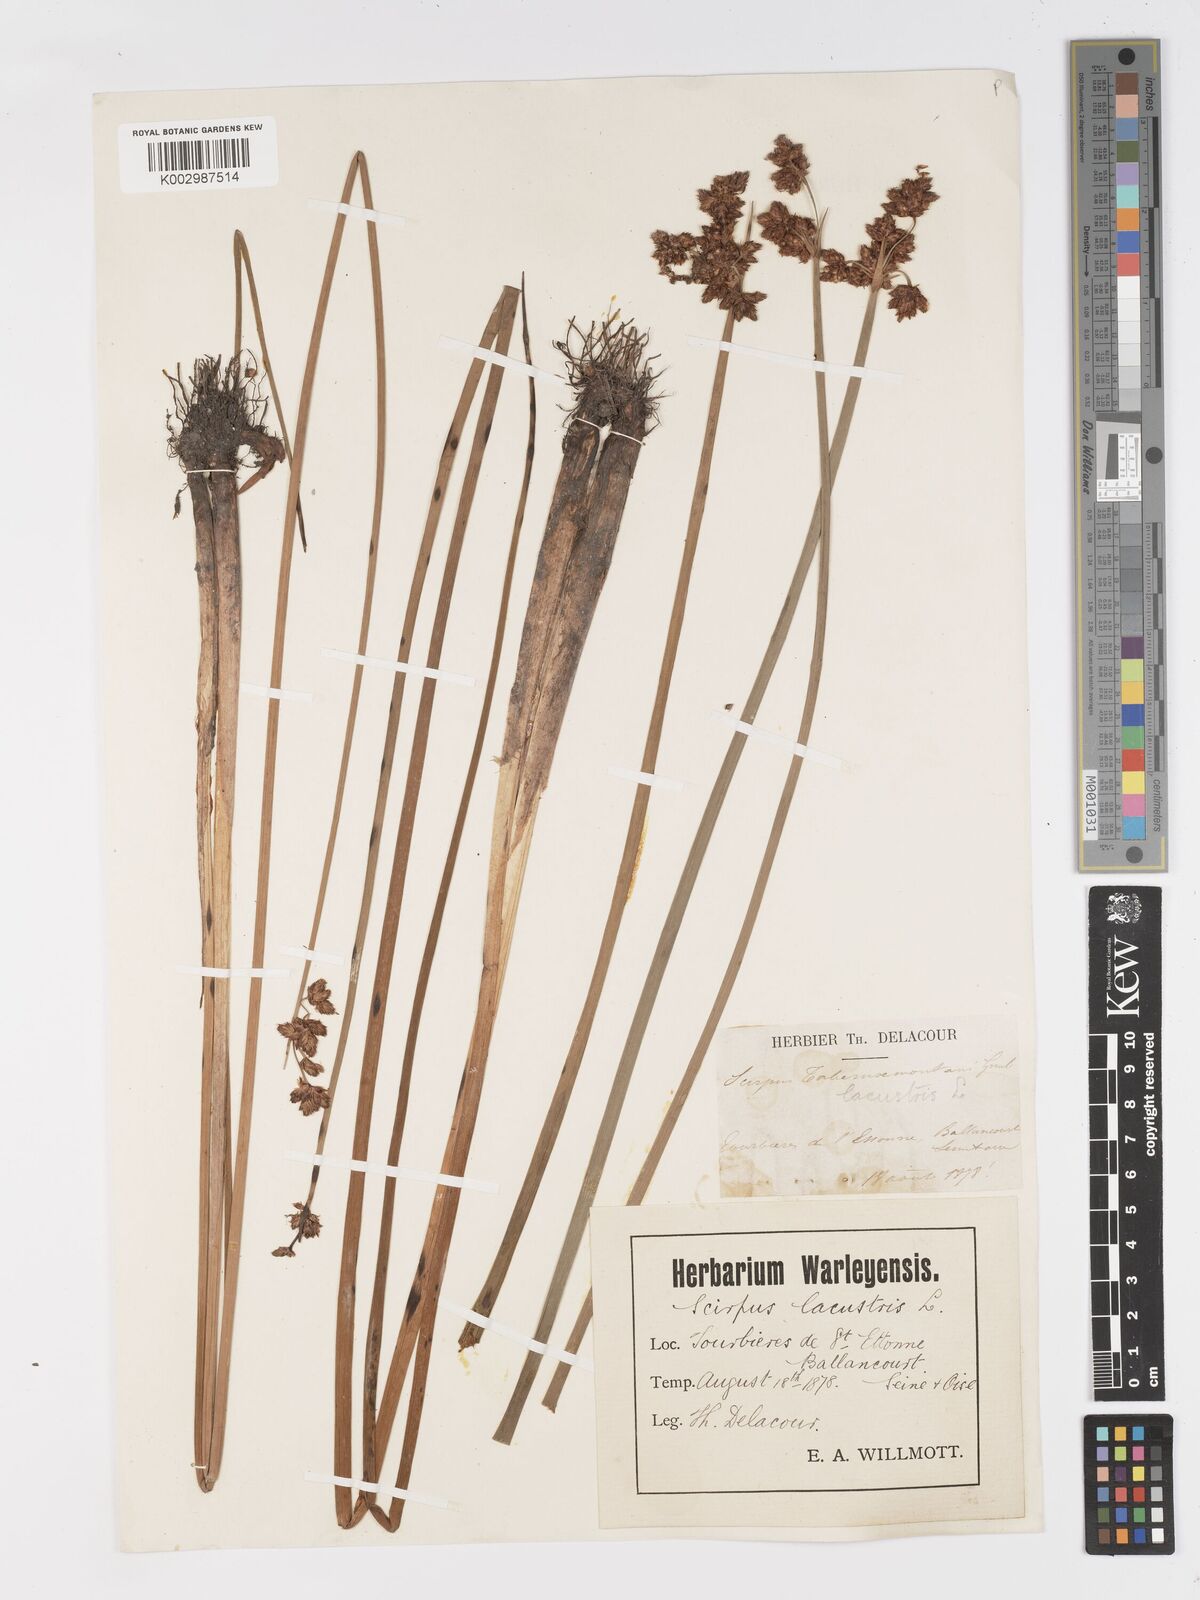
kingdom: Plantae
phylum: Tracheophyta
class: Liliopsida
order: Poales
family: Cyperaceae
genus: Schoenoplectus
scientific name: Schoenoplectus lacustris
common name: Common club-rush
